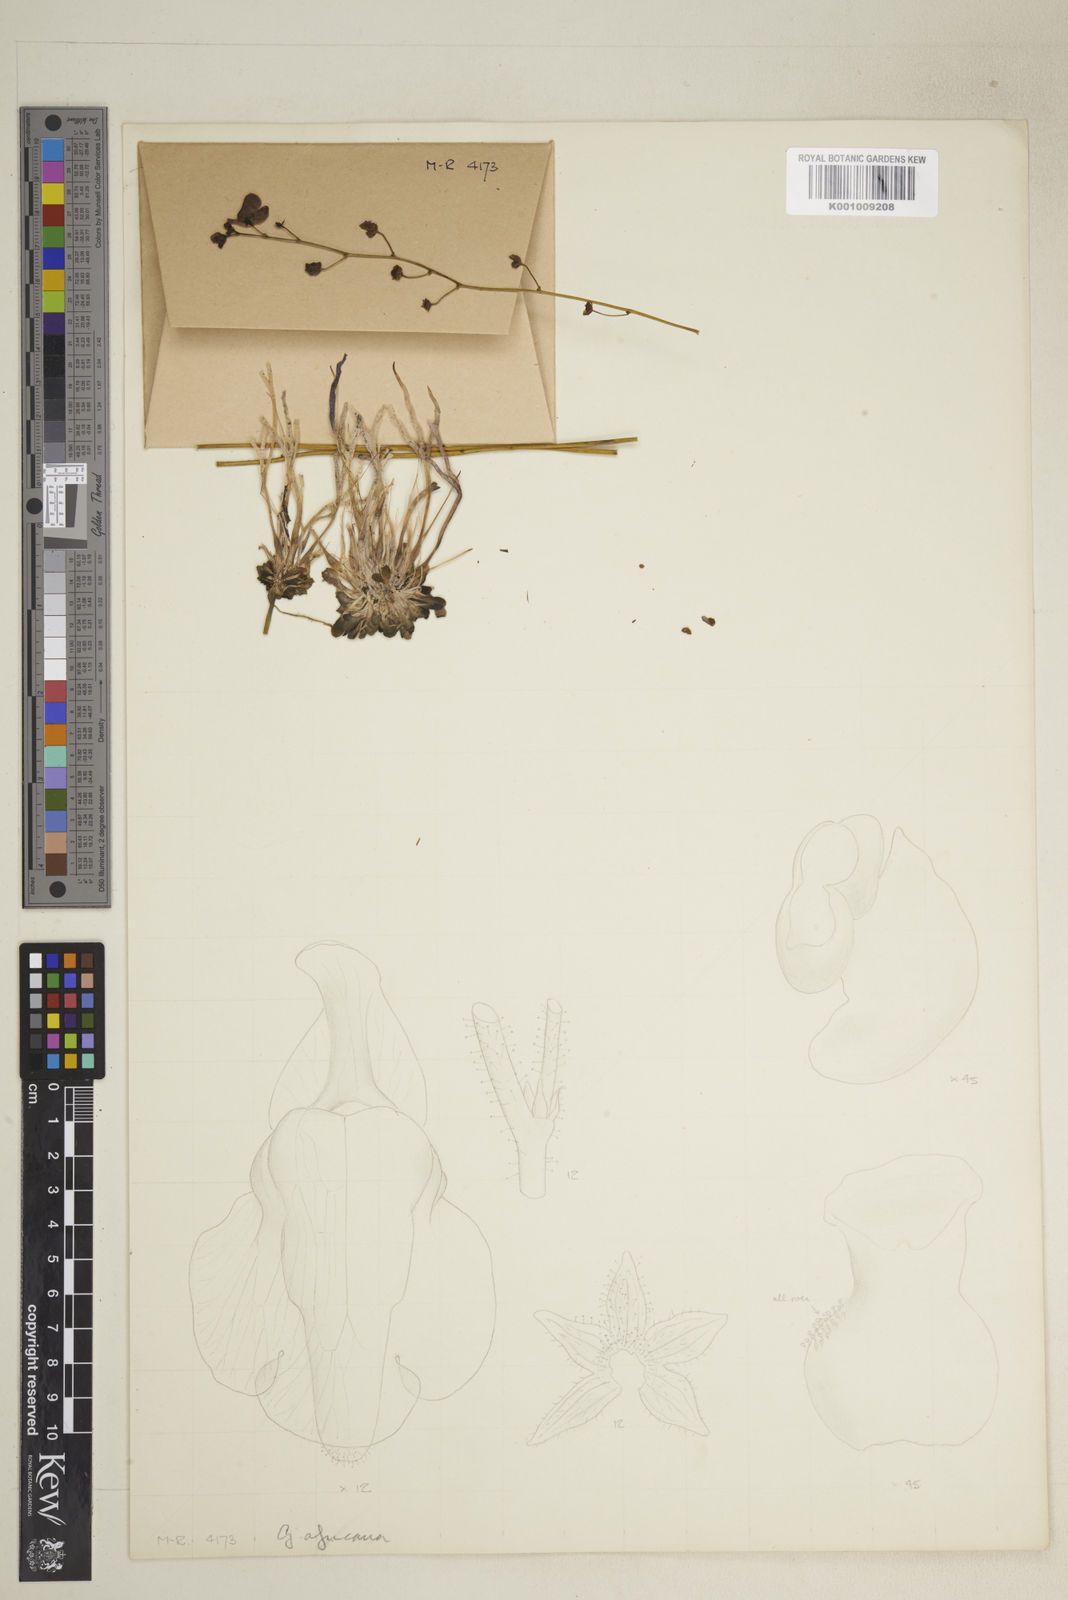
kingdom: Plantae
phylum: Tracheophyta
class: Magnoliopsida
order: Lamiales
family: Lentibulariaceae
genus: Genlisea
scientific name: Genlisea africana
